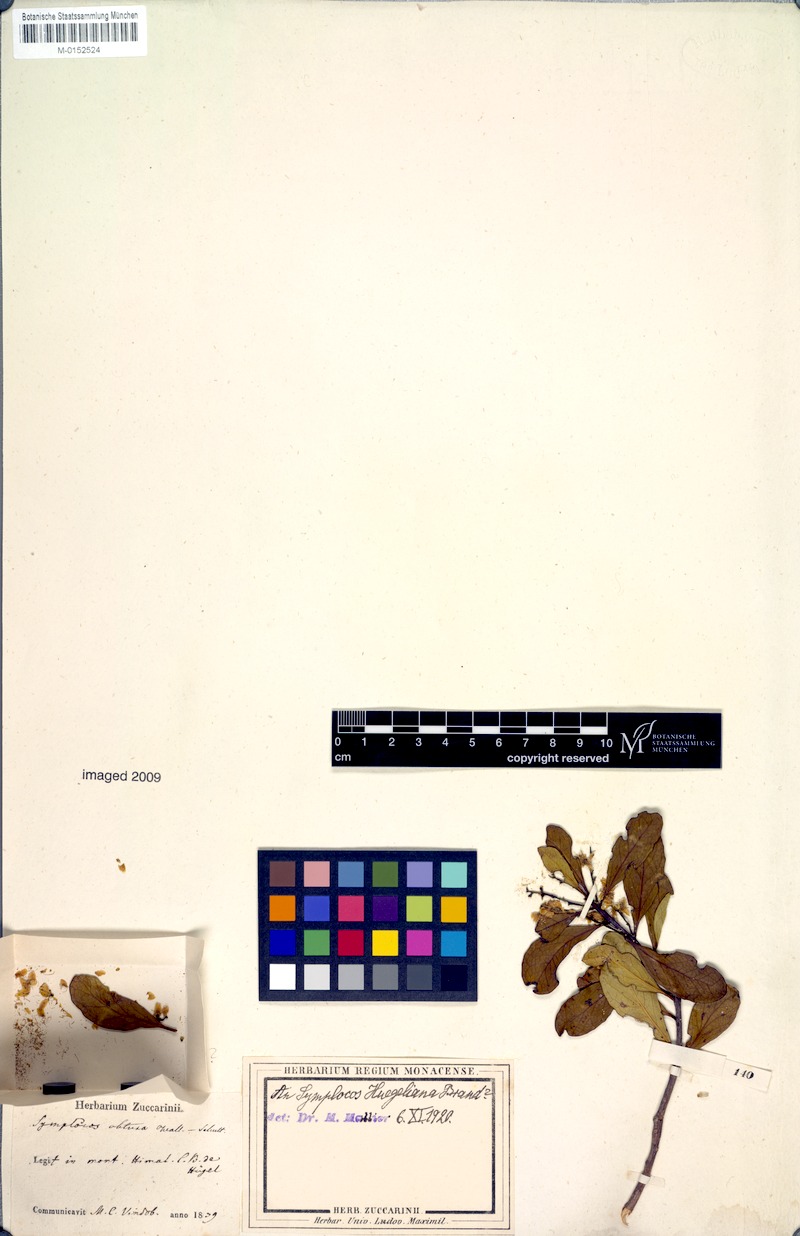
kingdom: Plantae
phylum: Tracheophyta
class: Magnoliopsida
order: Ericales
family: Symplocaceae
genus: Symplocos
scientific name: Symplocos huegeliana
